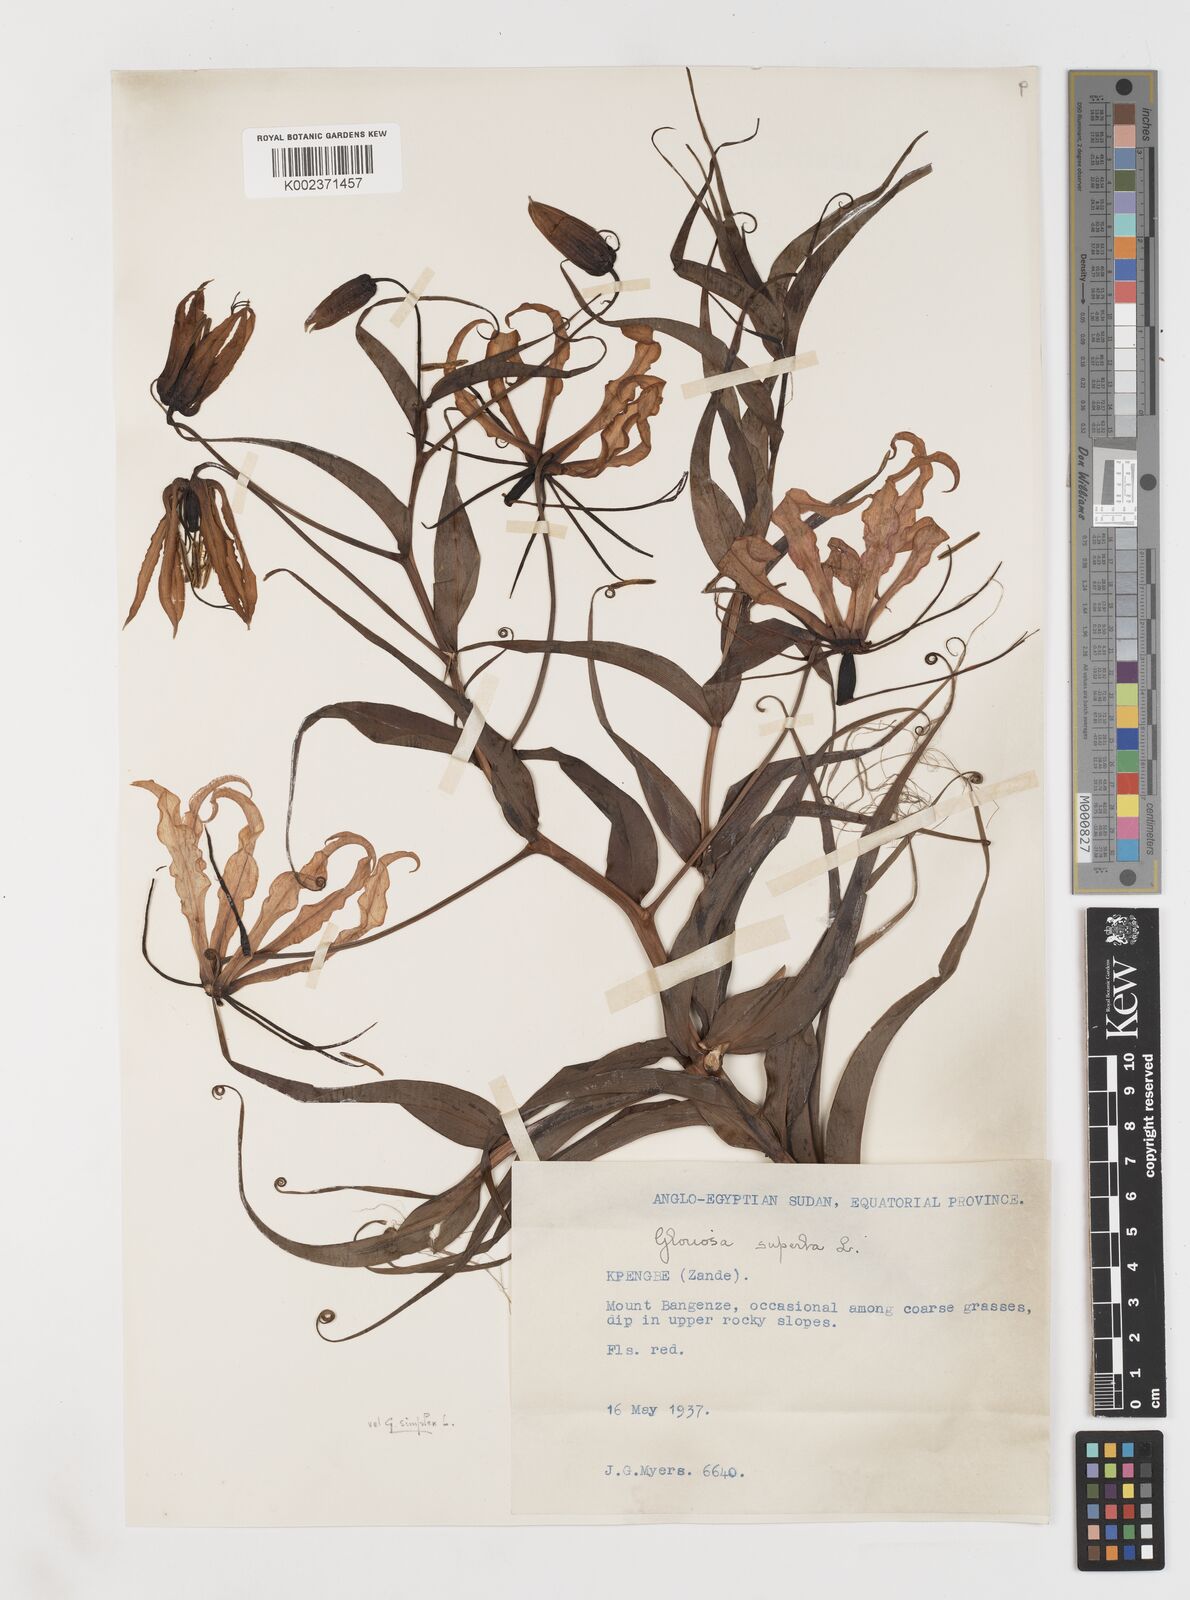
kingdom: Plantae
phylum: Tracheophyta
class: Liliopsida
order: Liliales
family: Colchicaceae
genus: Gloriosa
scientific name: Gloriosa superba
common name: Flame lily
